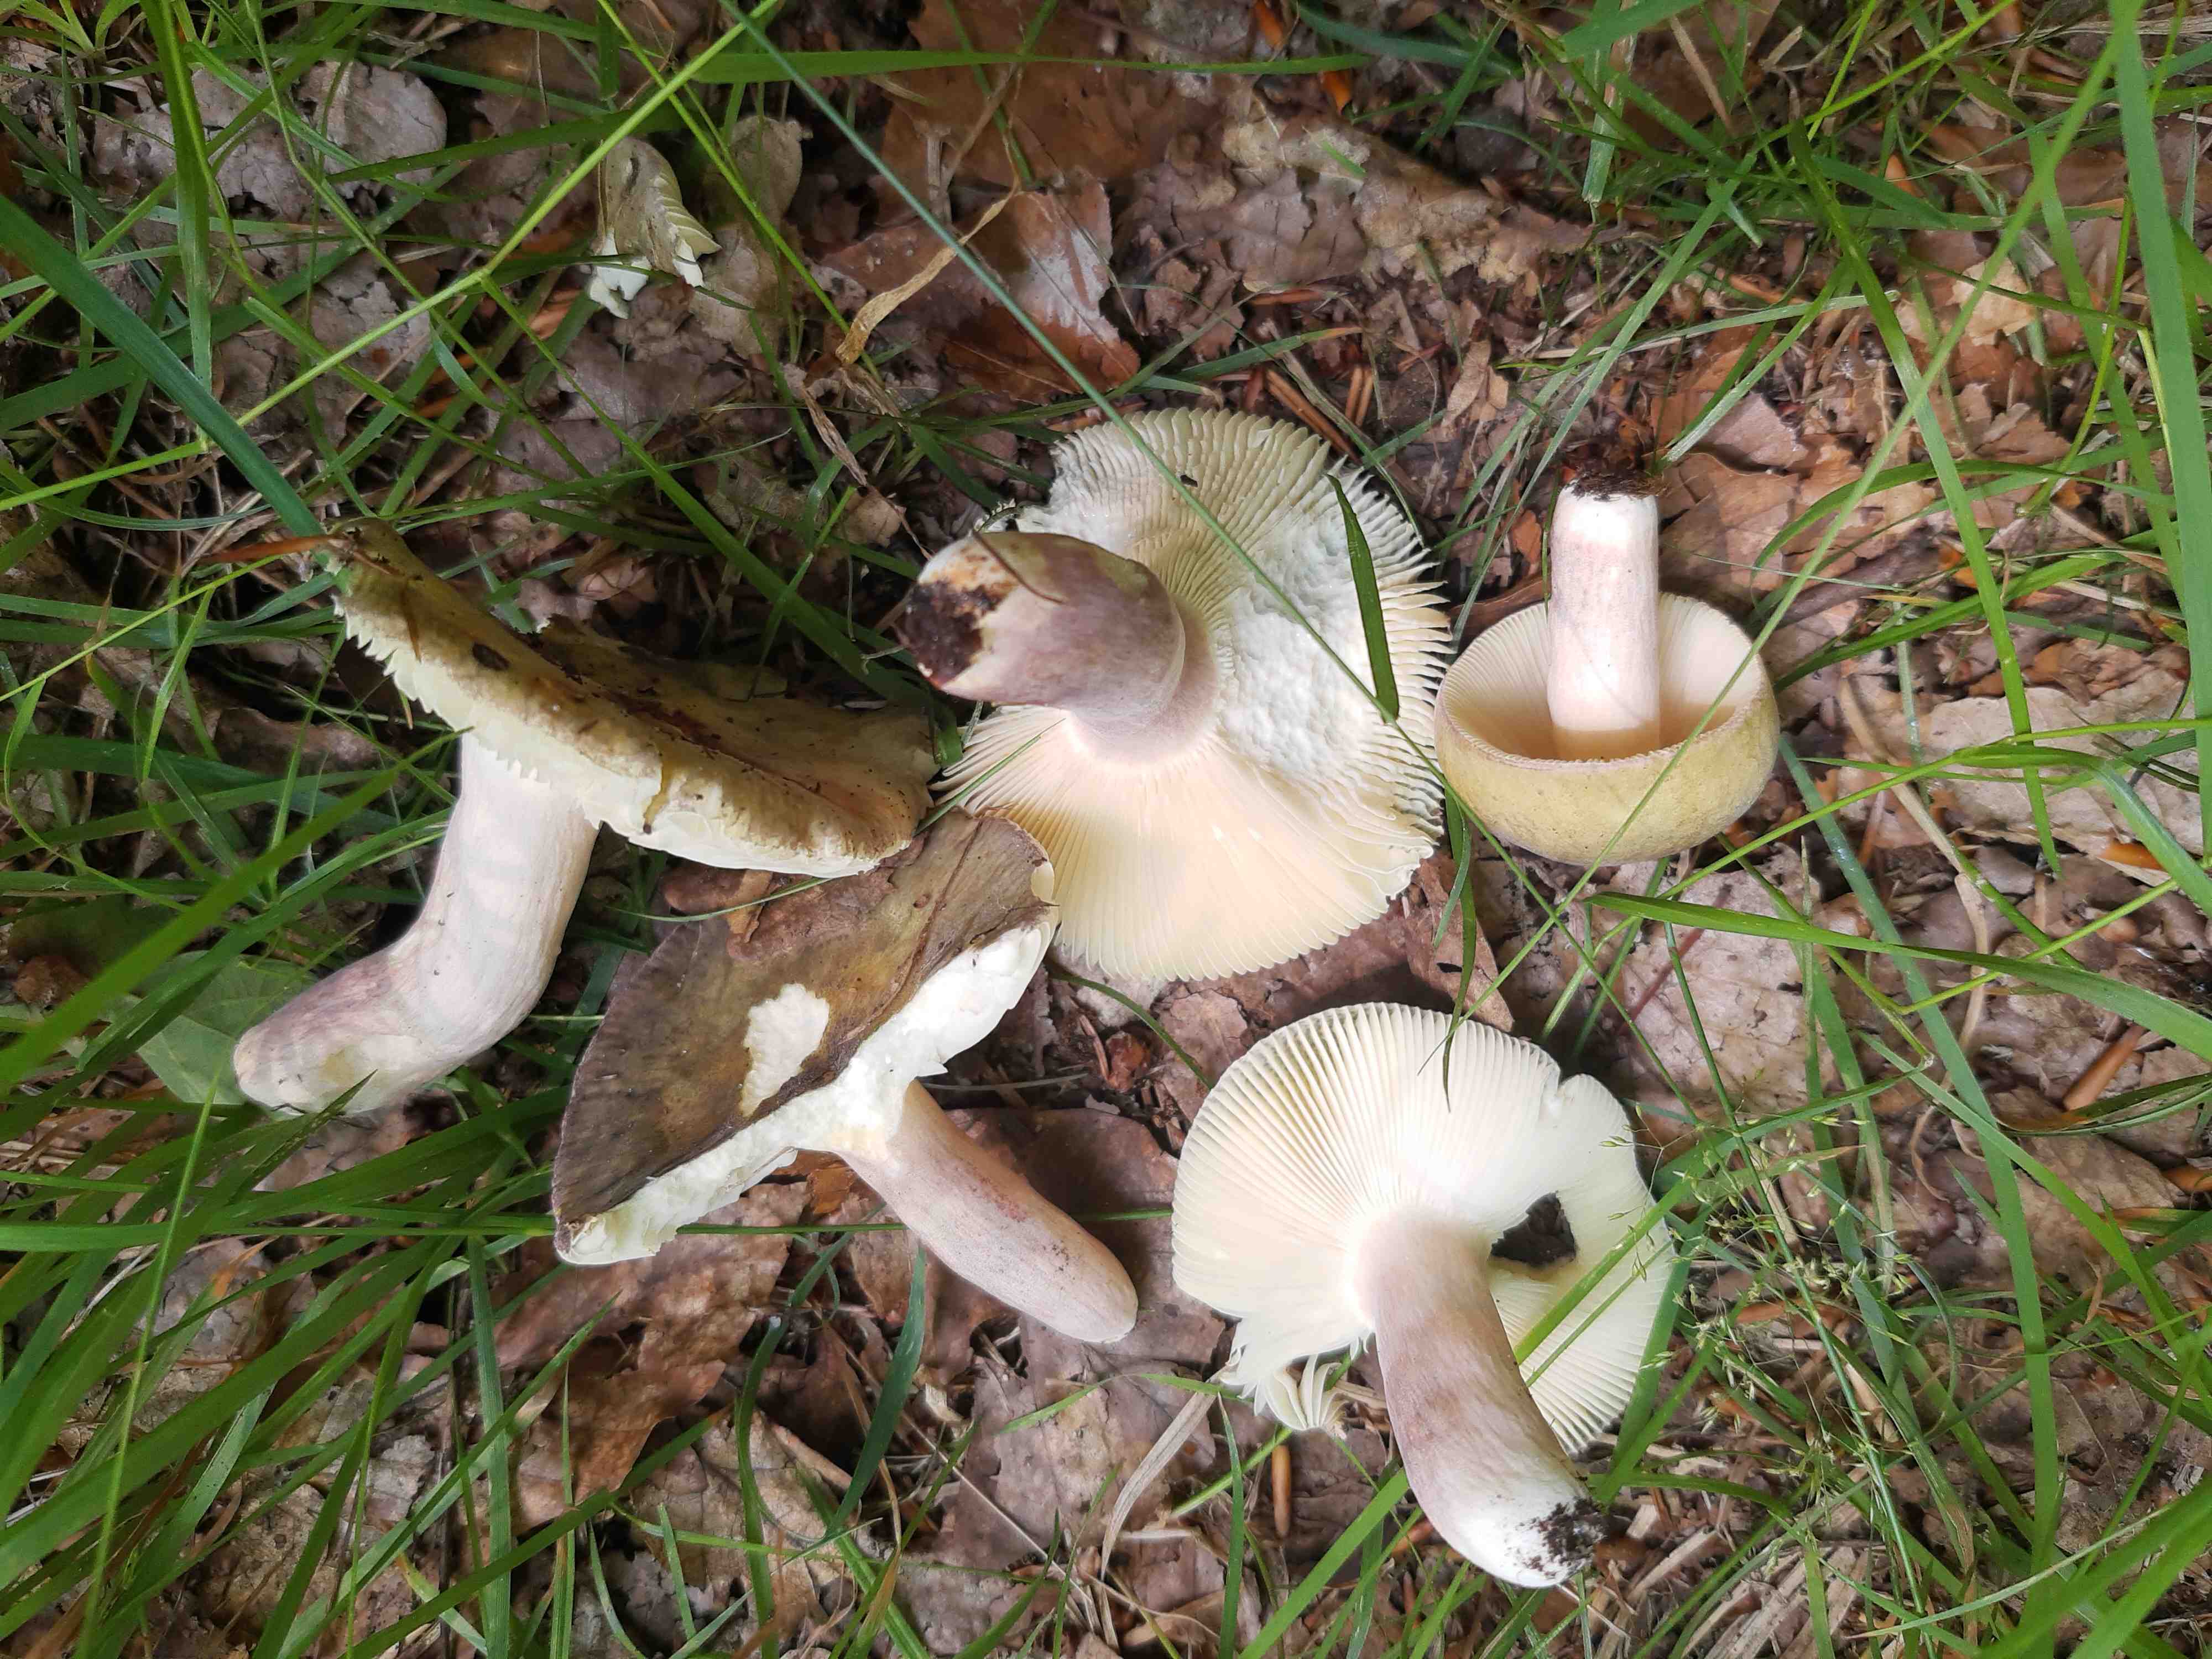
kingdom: Fungi
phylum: Basidiomycota
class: Agaricomycetes
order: Russulales
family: Russulaceae
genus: Russula
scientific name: Russula olivacea
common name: stor skørhat
